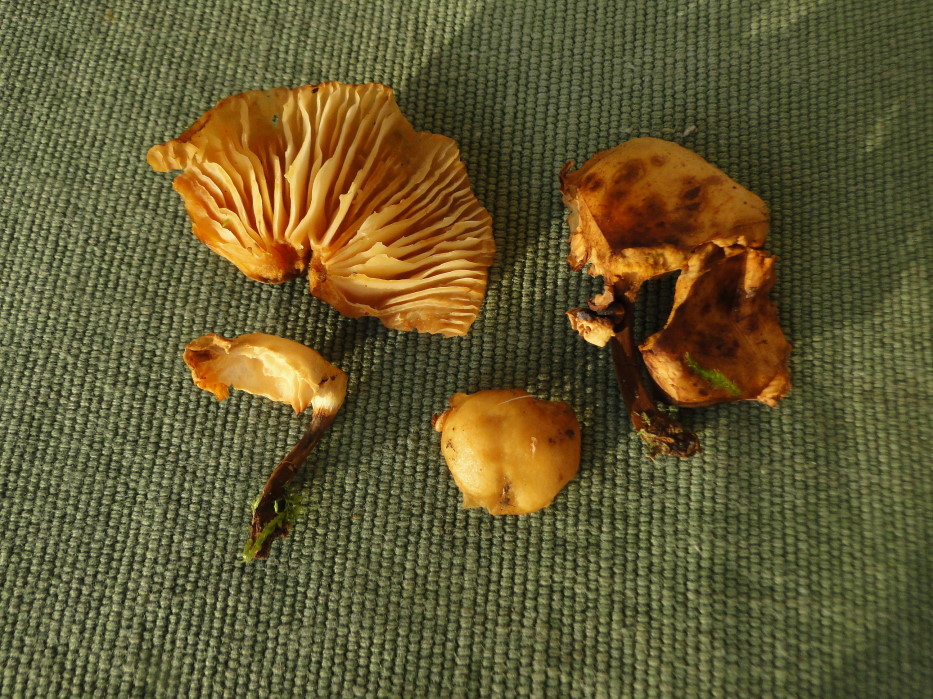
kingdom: Fungi
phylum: Basidiomycota
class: Agaricomycetes
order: Agaricales
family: Physalacriaceae
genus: Flammulina
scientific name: Flammulina elastica
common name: pile-fløjlsfod
